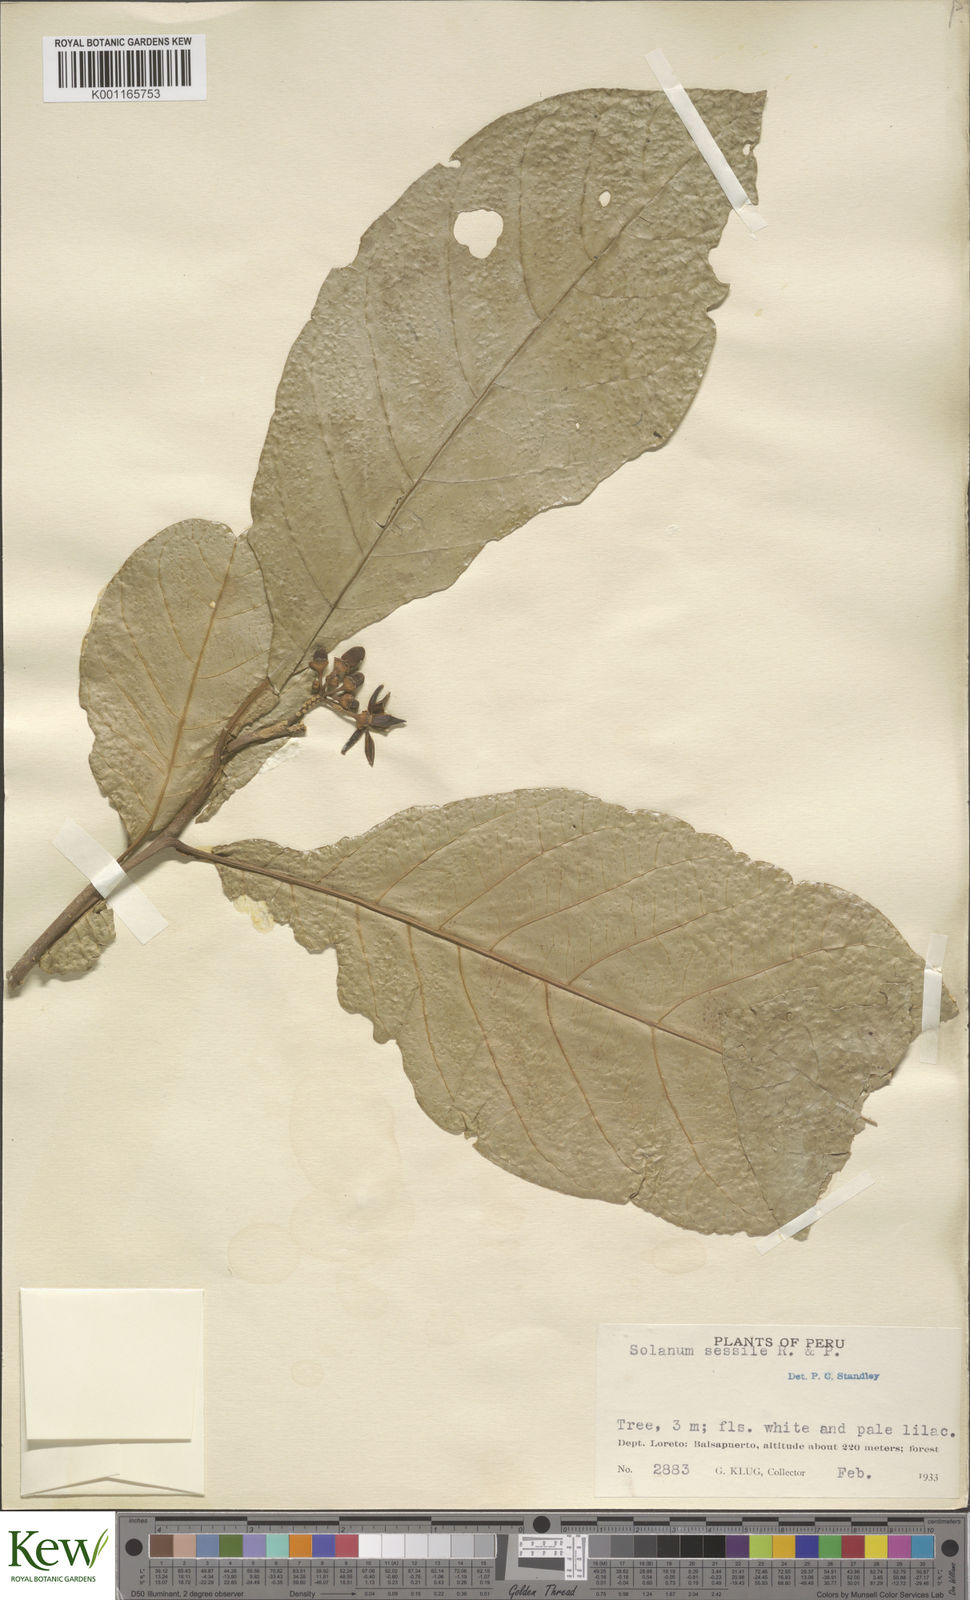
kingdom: Plantae
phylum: Tracheophyta
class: Magnoliopsida
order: Solanales
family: Solanaceae
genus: Solanum
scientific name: Solanum sessile
